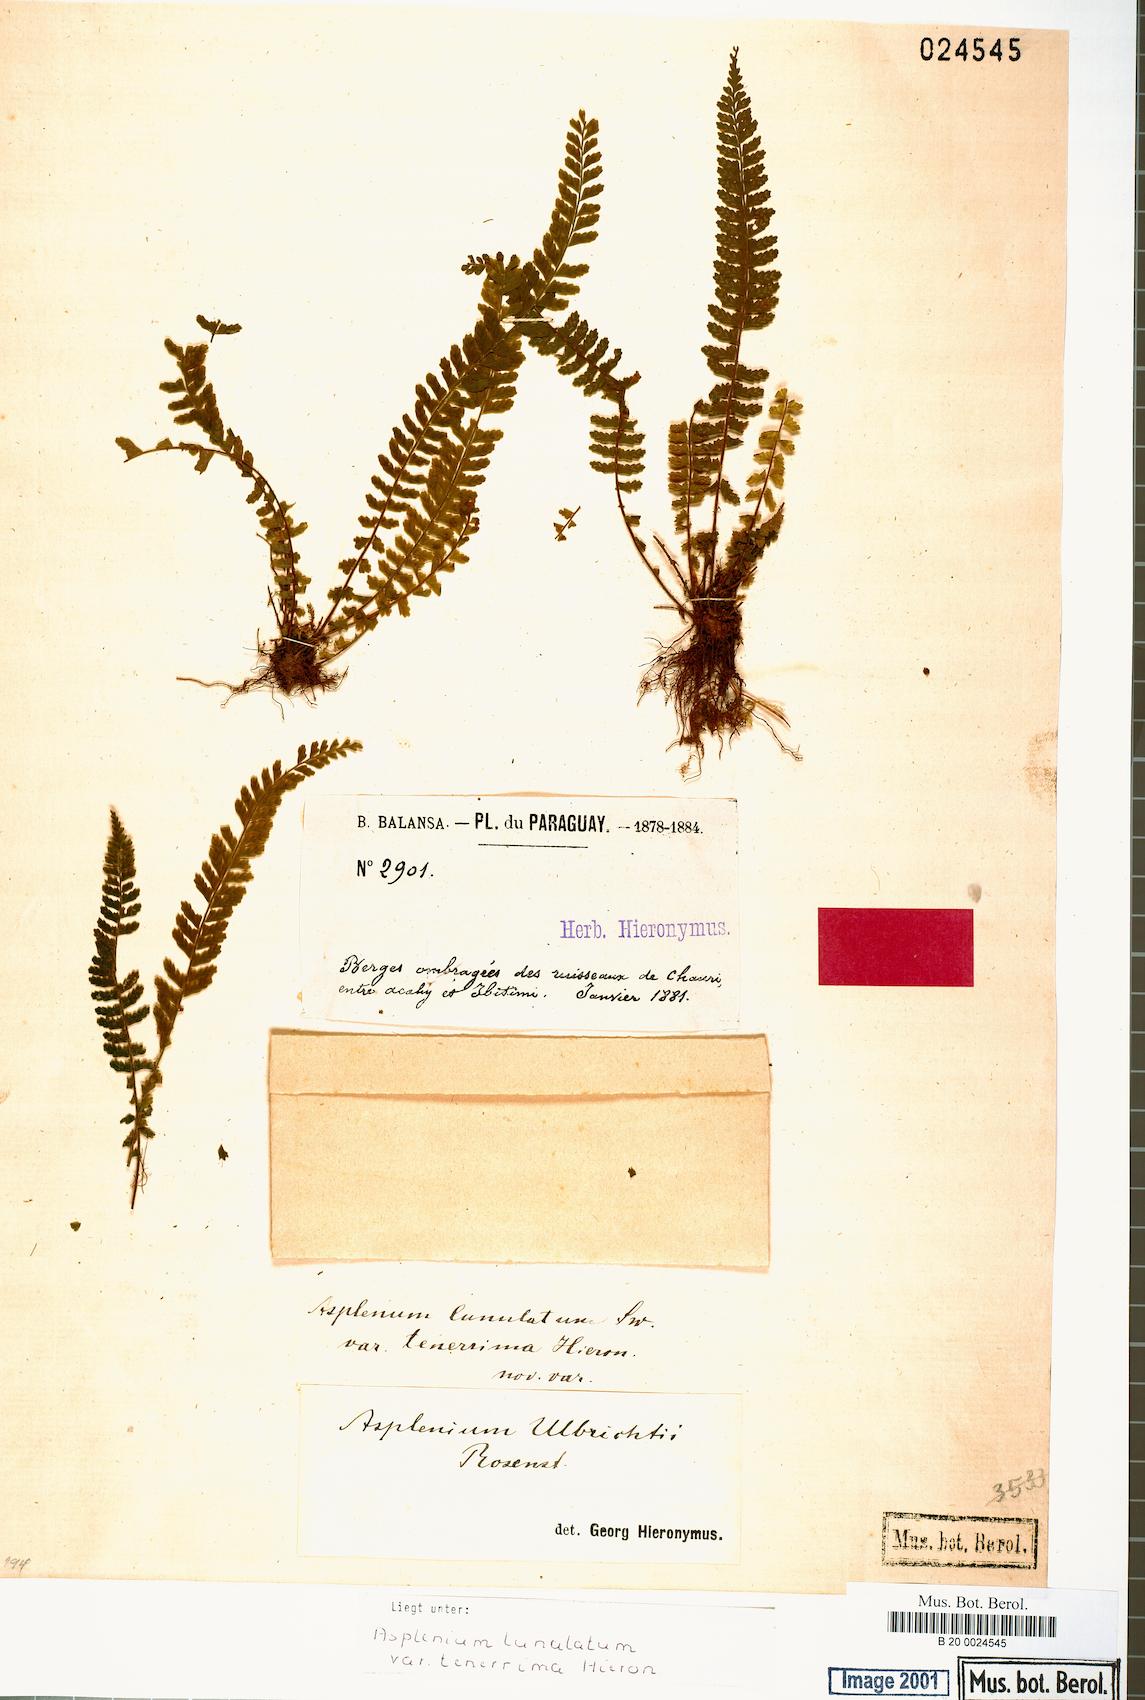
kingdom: Plantae
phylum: Tracheophyta
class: Polypodiopsida
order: Polypodiales
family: Aspleniaceae
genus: Asplenium
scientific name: Asplenium sellowianum
